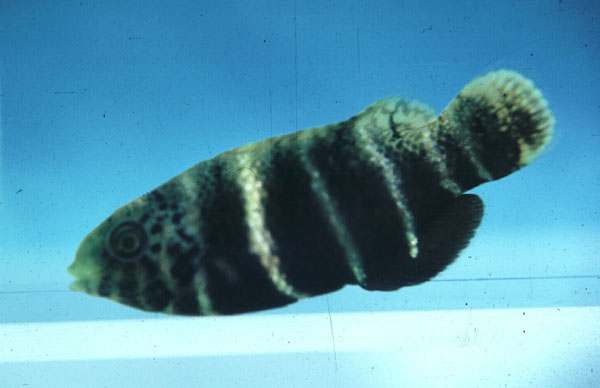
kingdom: Animalia
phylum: Chordata
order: Perciformes
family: Labridae
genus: Hemigymnus
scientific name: Hemigymnus fasciatus
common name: Barred thicklip
